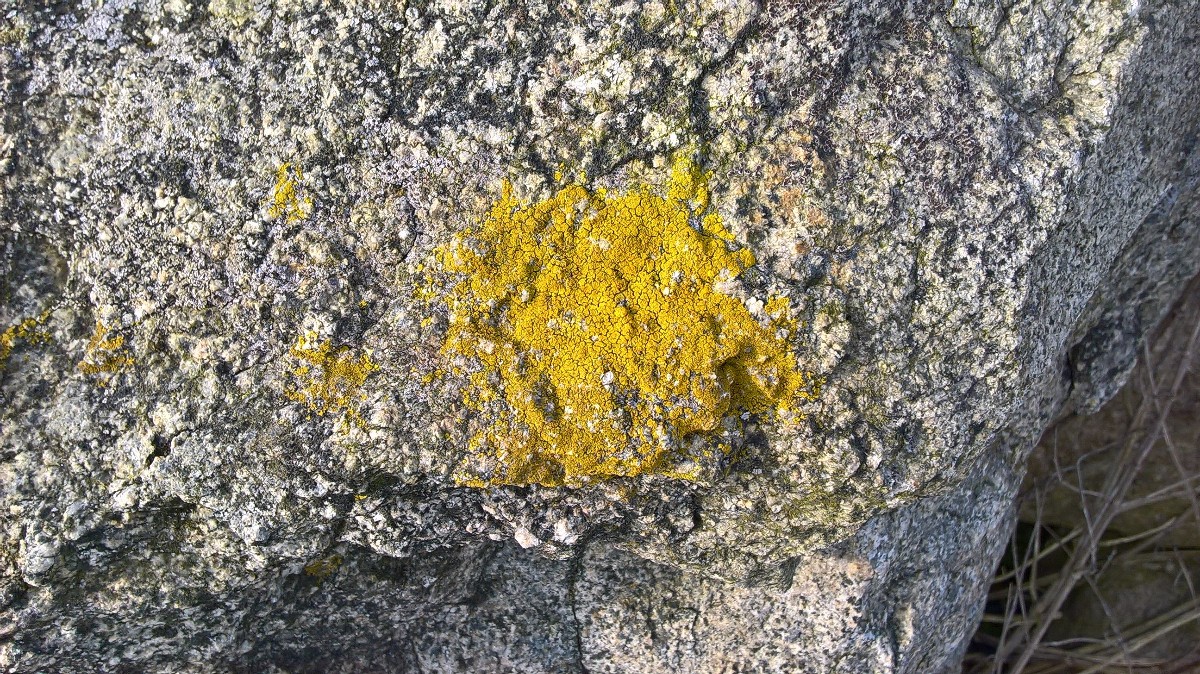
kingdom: Fungi
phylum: Ascomycota
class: Candelariomycetes
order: Candelariales
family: Candelariaceae
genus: Candelariella
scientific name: Candelariella vitellina
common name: almindelig æggeblommelav
